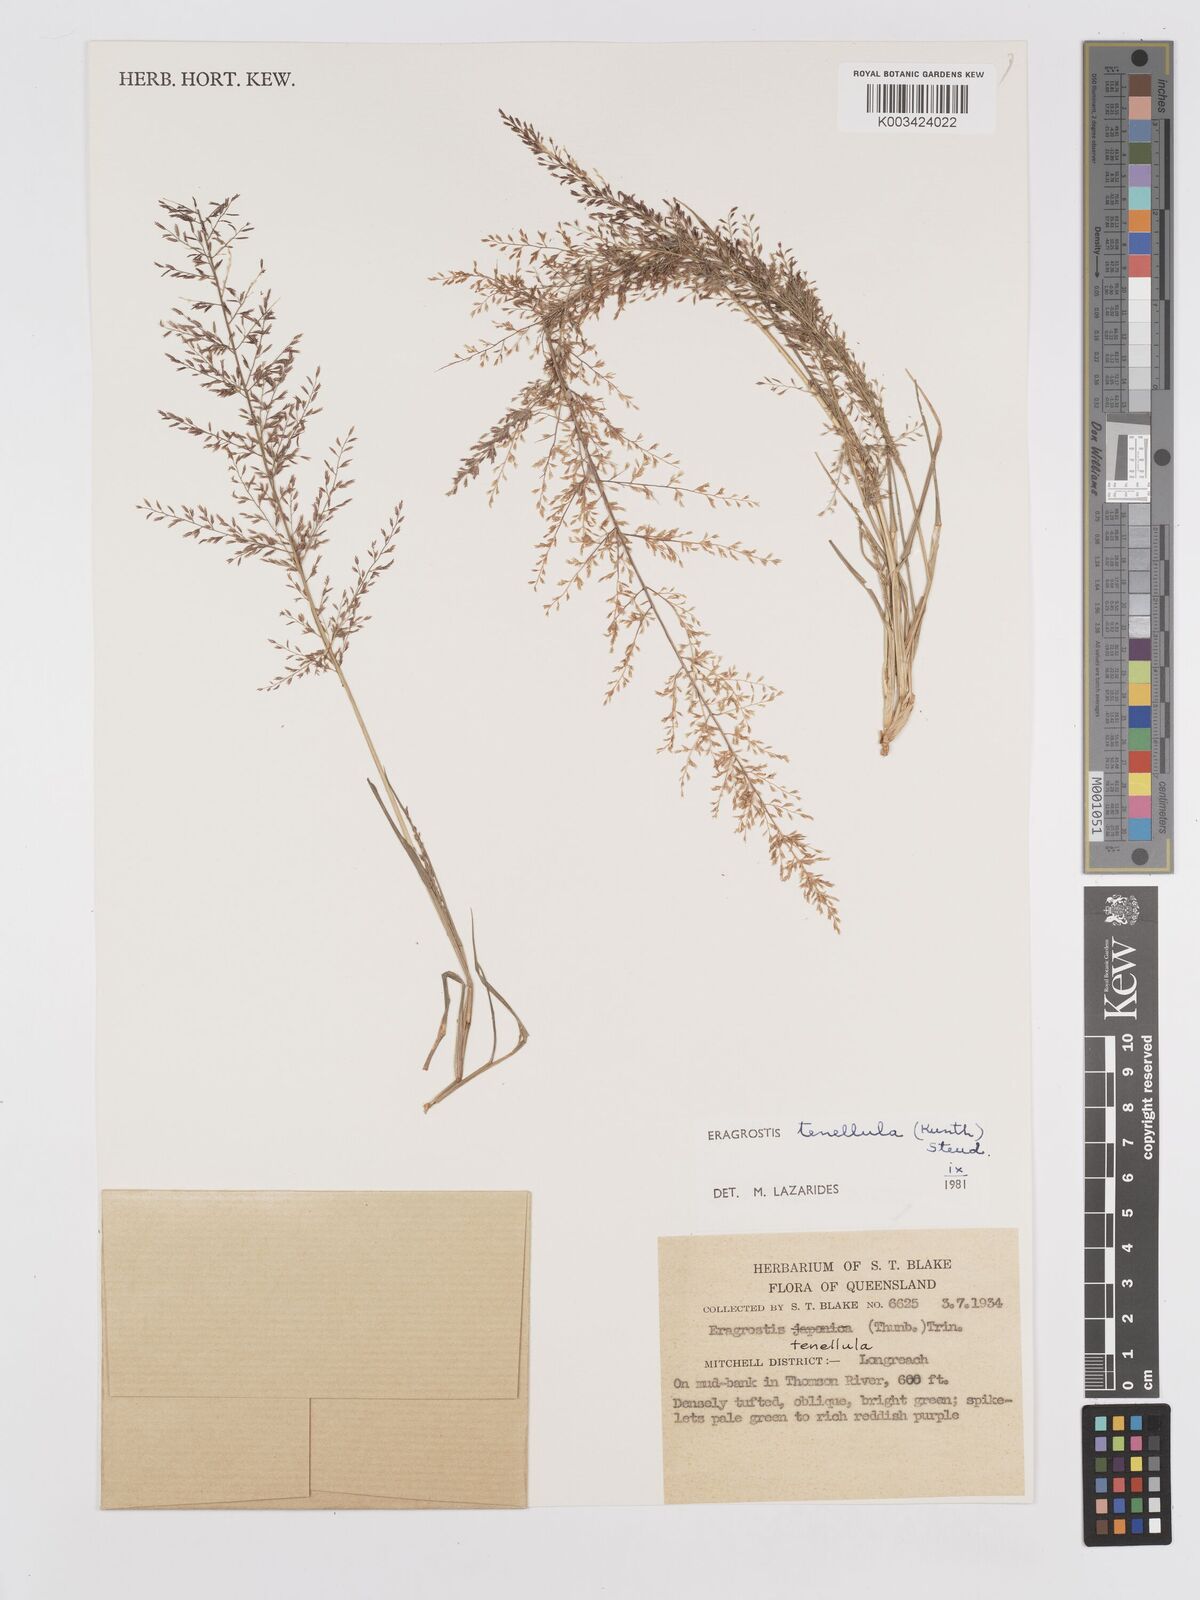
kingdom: Plantae
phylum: Tracheophyta
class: Liliopsida
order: Poales
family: Poaceae
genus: Eragrostis
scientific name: Eragrostis tenellula
